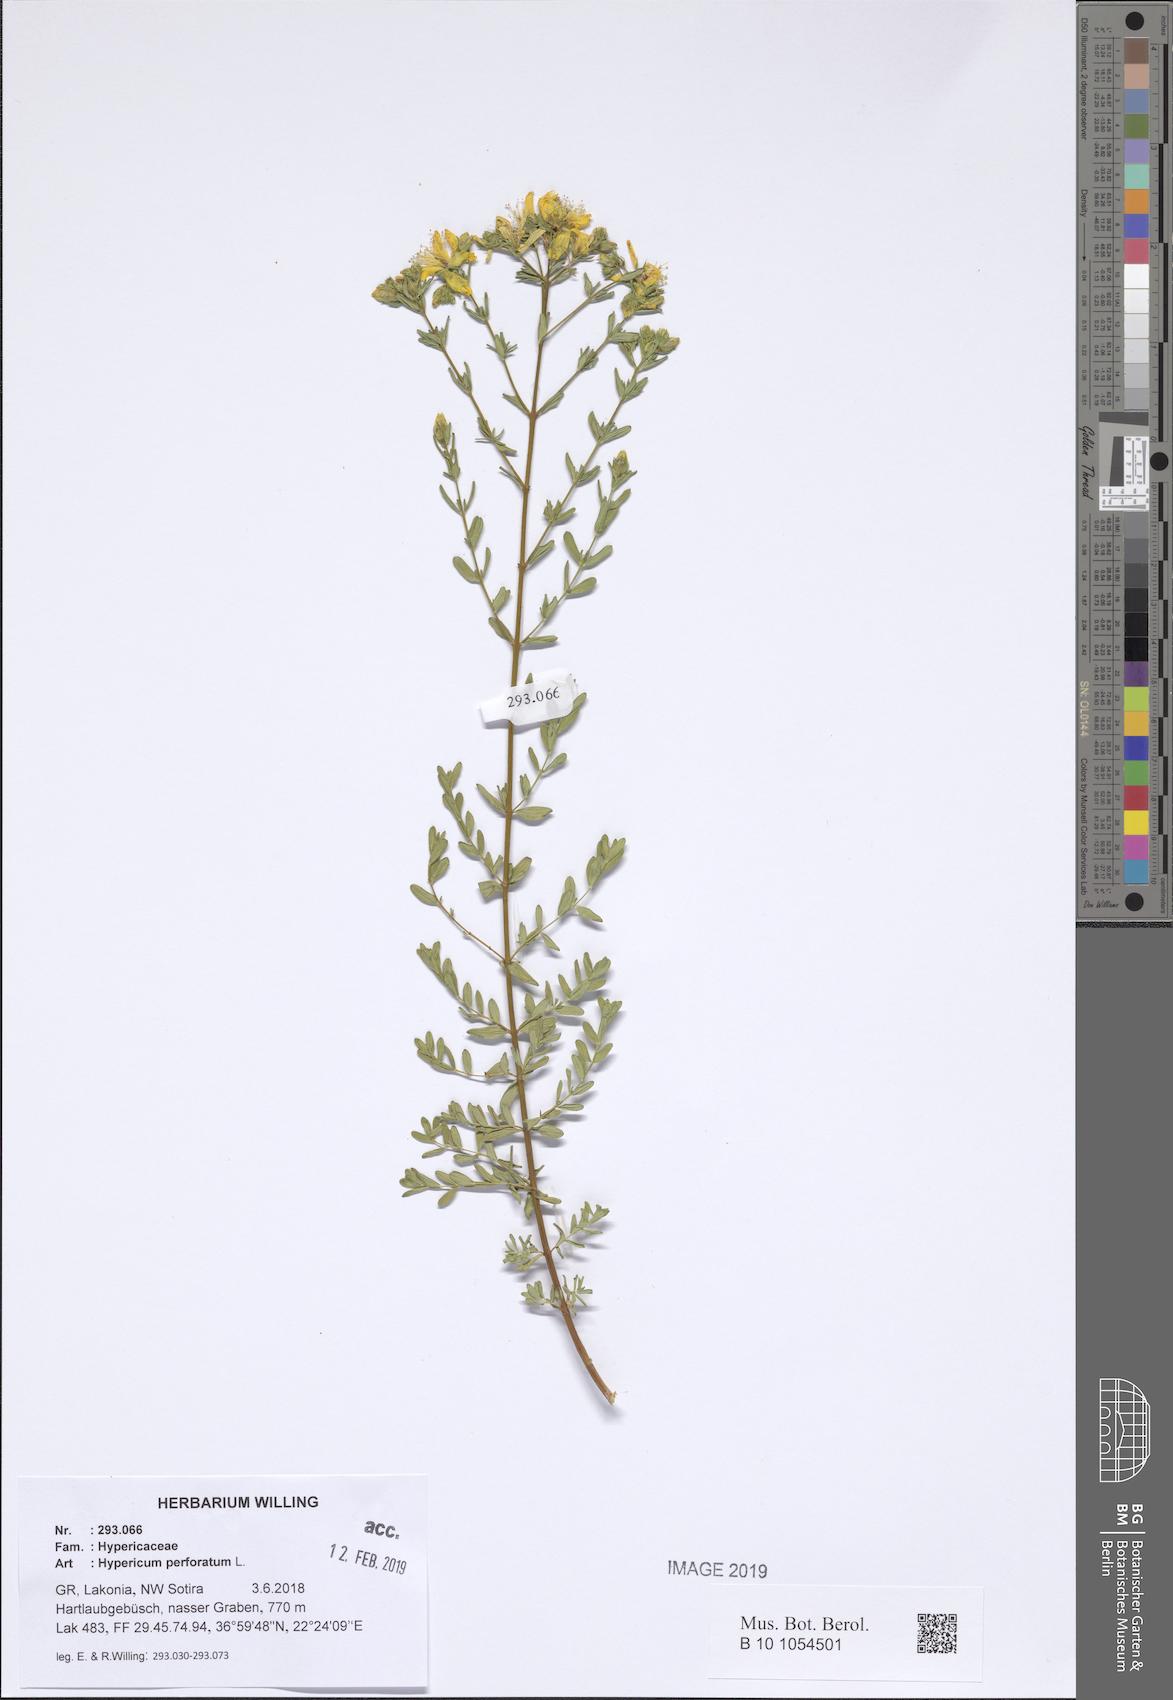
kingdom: Plantae
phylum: Tracheophyta
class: Magnoliopsida
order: Malpighiales
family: Hypericaceae
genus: Hypericum
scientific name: Hypericum perforatum
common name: Common st. johnswort
